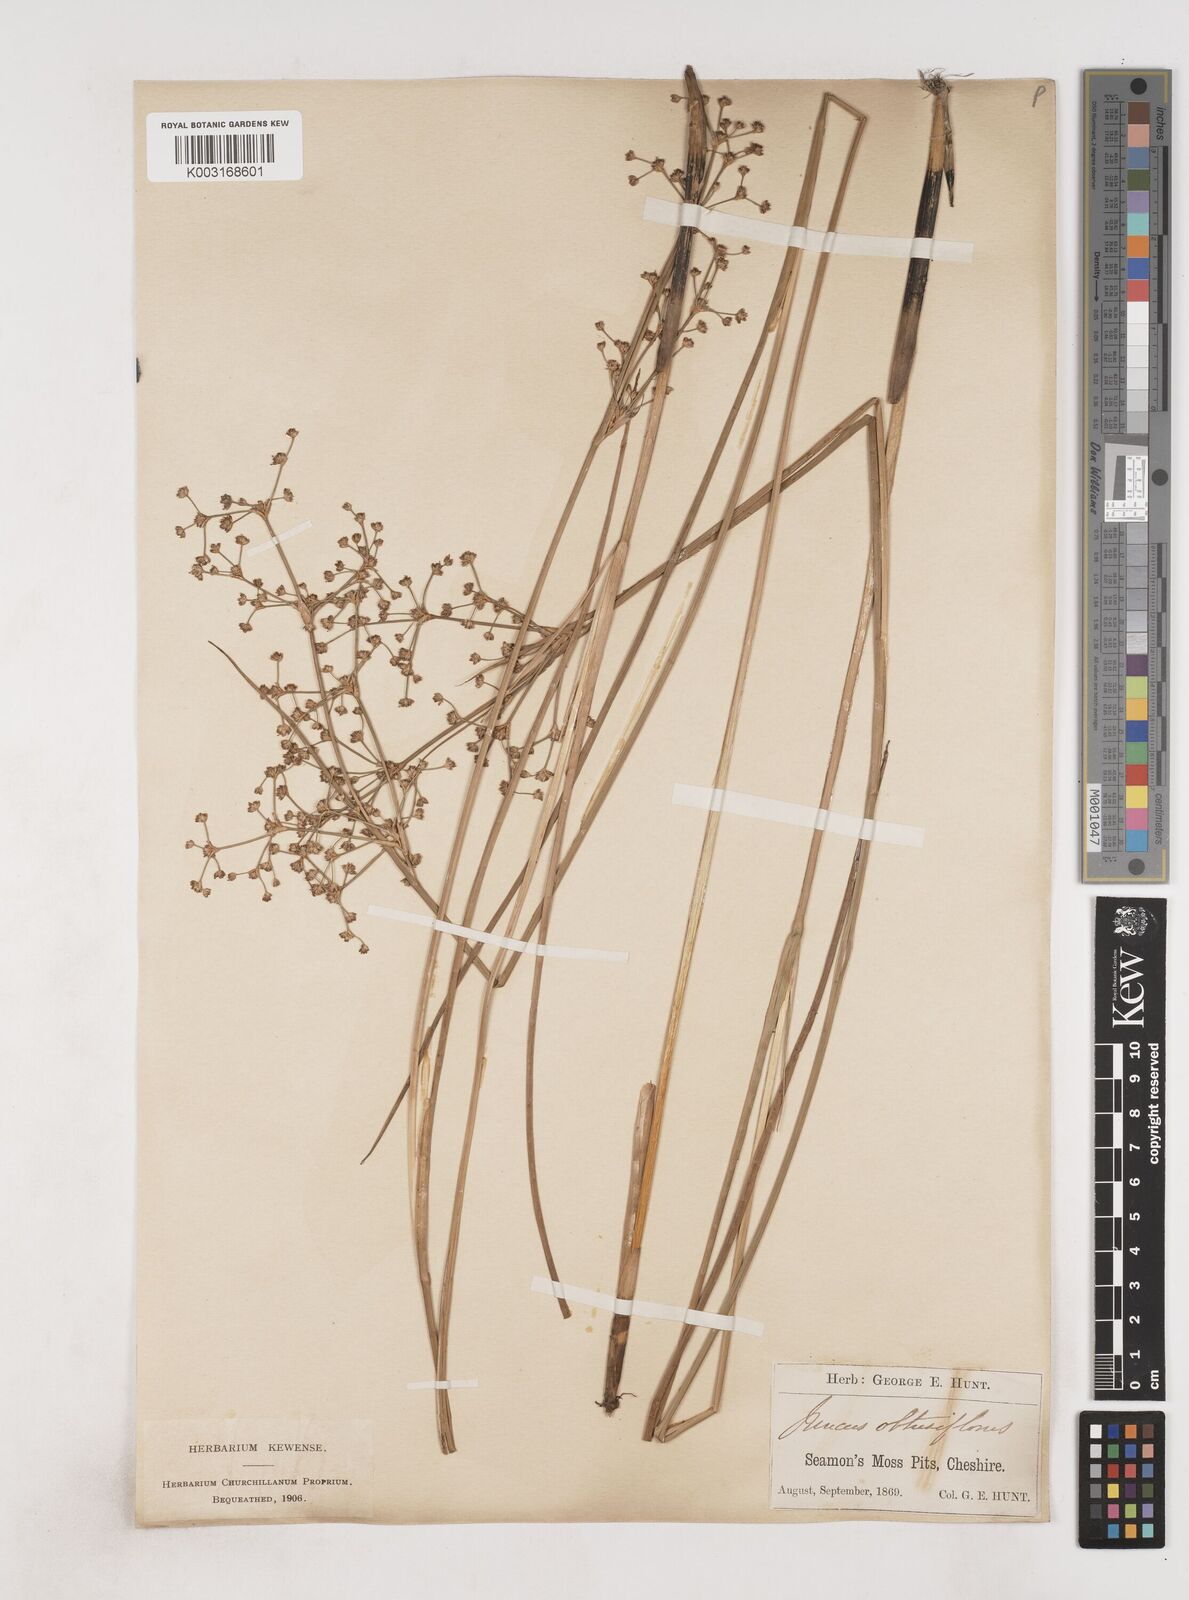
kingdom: Plantae
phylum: Tracheophyta
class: Liliopsida
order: Poales
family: Juncaceae
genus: Juncus
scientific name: Juncus subnodulosus
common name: Blunt-flowered rush
